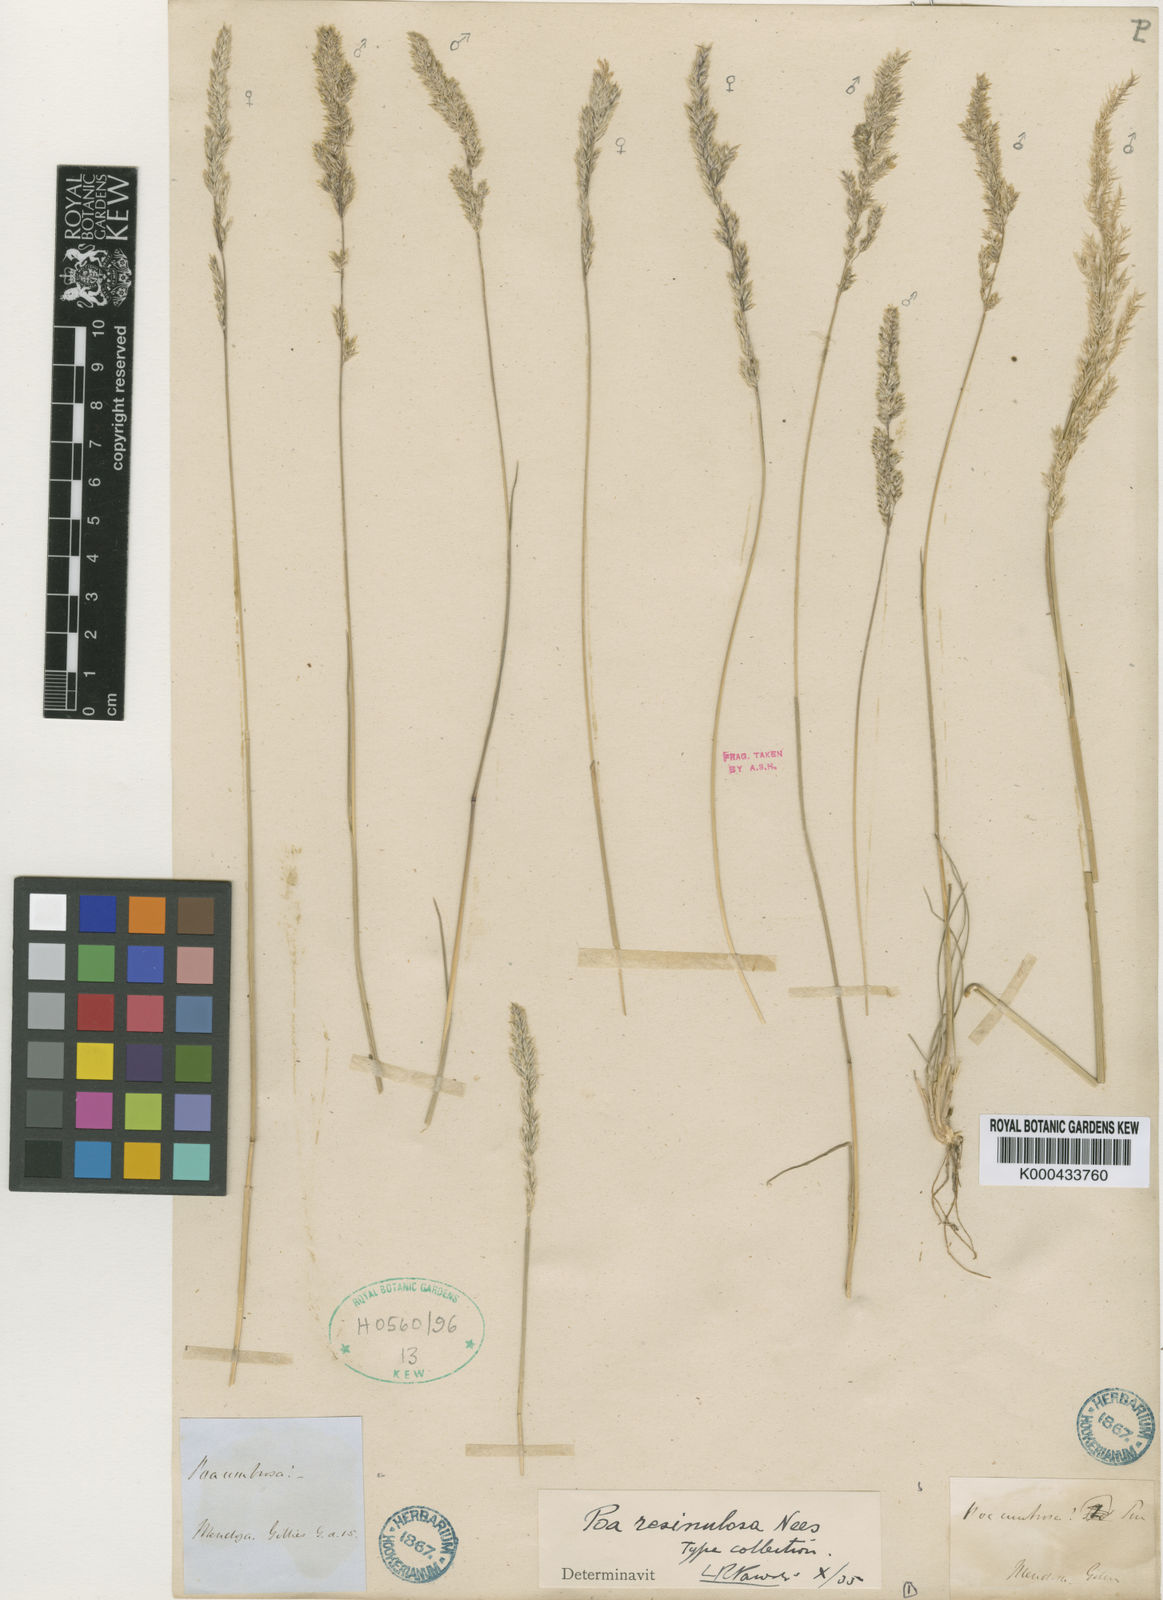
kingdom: Plantae
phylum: Tracheophyta
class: Liliopsida
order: Poales
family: Poaceae
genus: Poa
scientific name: Poa resinulosa
